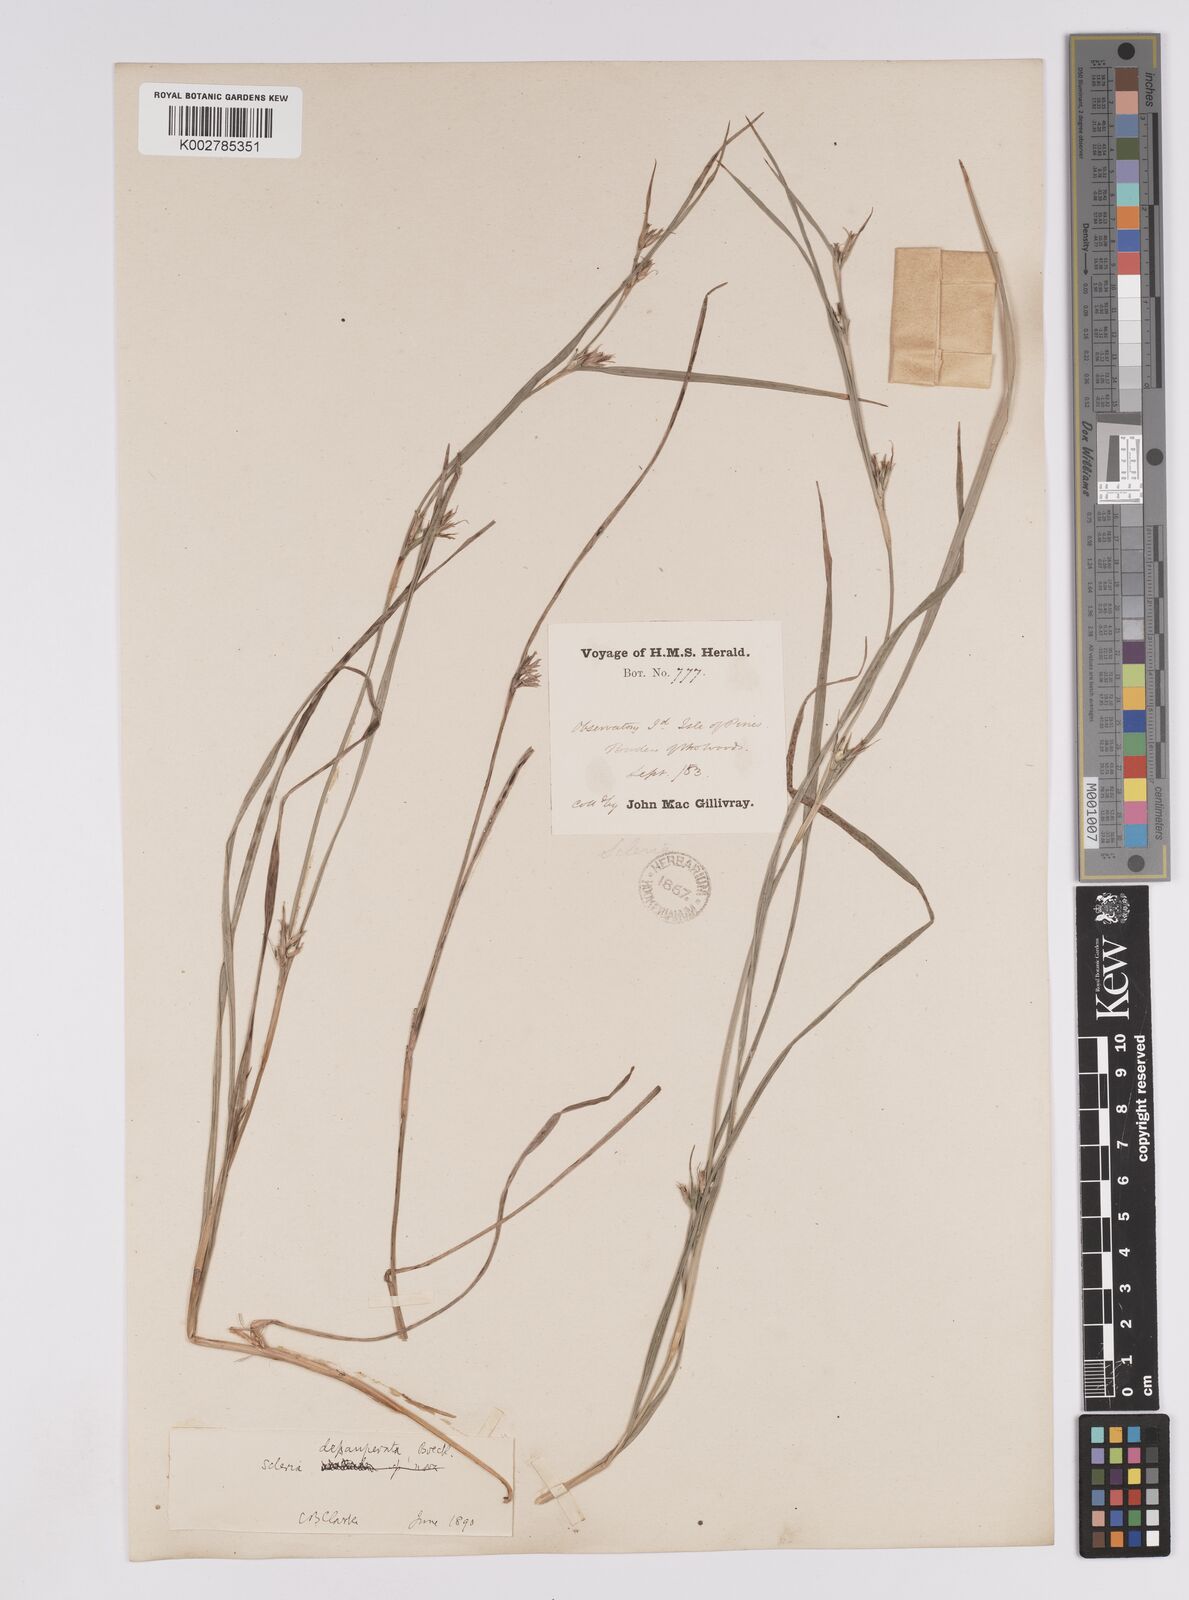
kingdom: Plantae
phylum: Tracheophyta
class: Liliopsida
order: Poales
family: Cyperaceae
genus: Scleria
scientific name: Scleria depauperata
